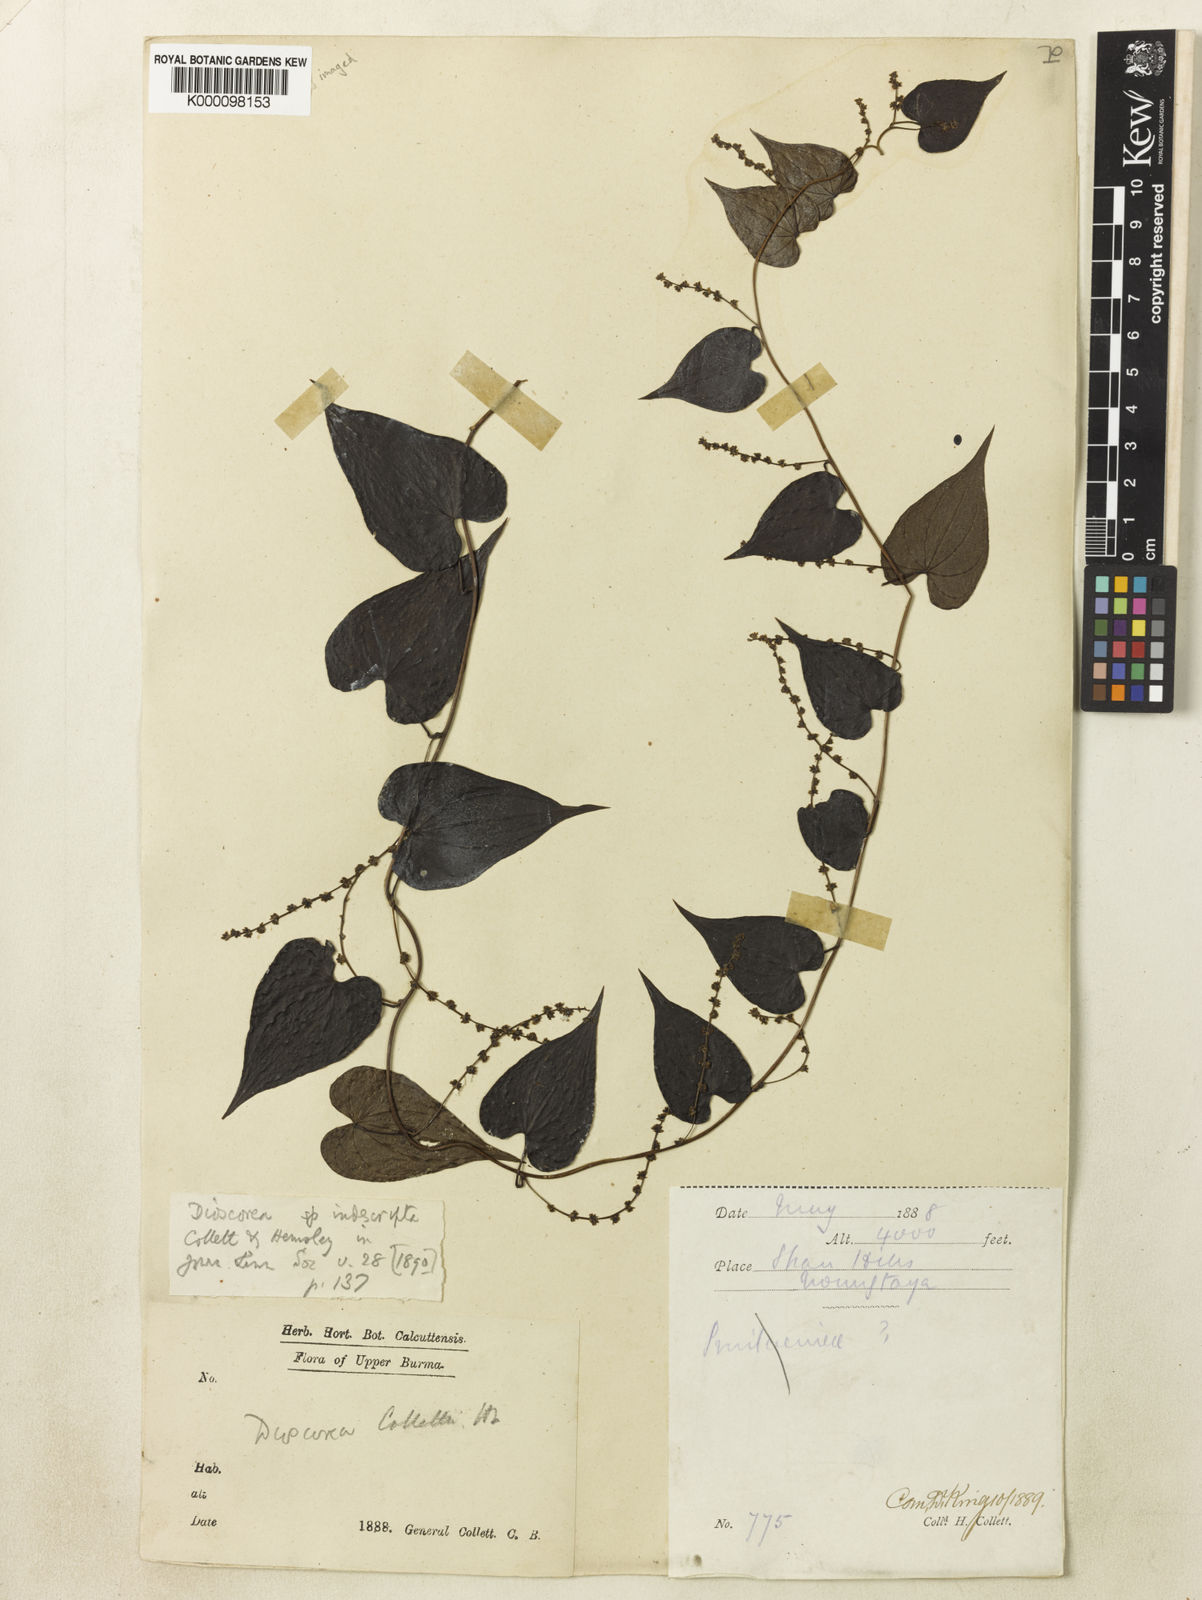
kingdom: Plantae
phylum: Tracheophyta
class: Liliopsida
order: Dioscoreales
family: Dioscoreaceae
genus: Dioscorea
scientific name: Dioscorea collettii
